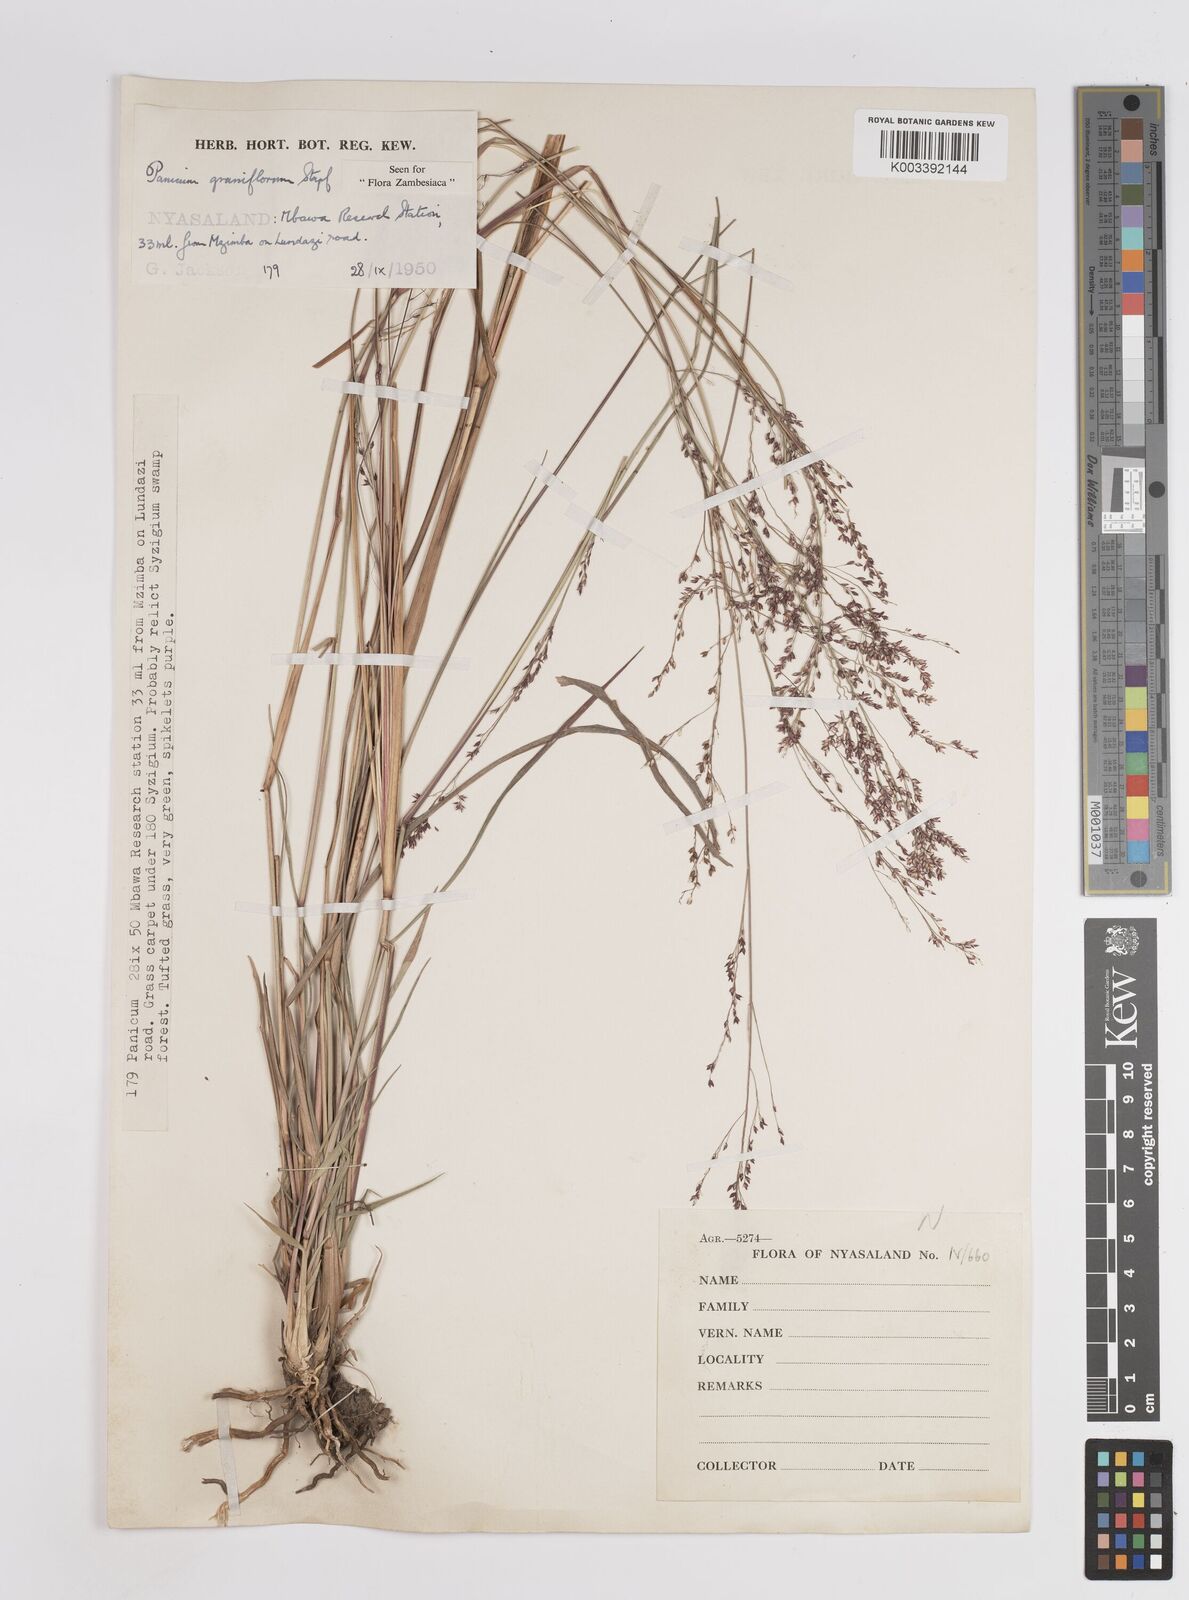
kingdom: Plantae
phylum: Tracheophyta
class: Liliopsida
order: Poales
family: Poaceae
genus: Panicum
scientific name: Panicum graniflorum
